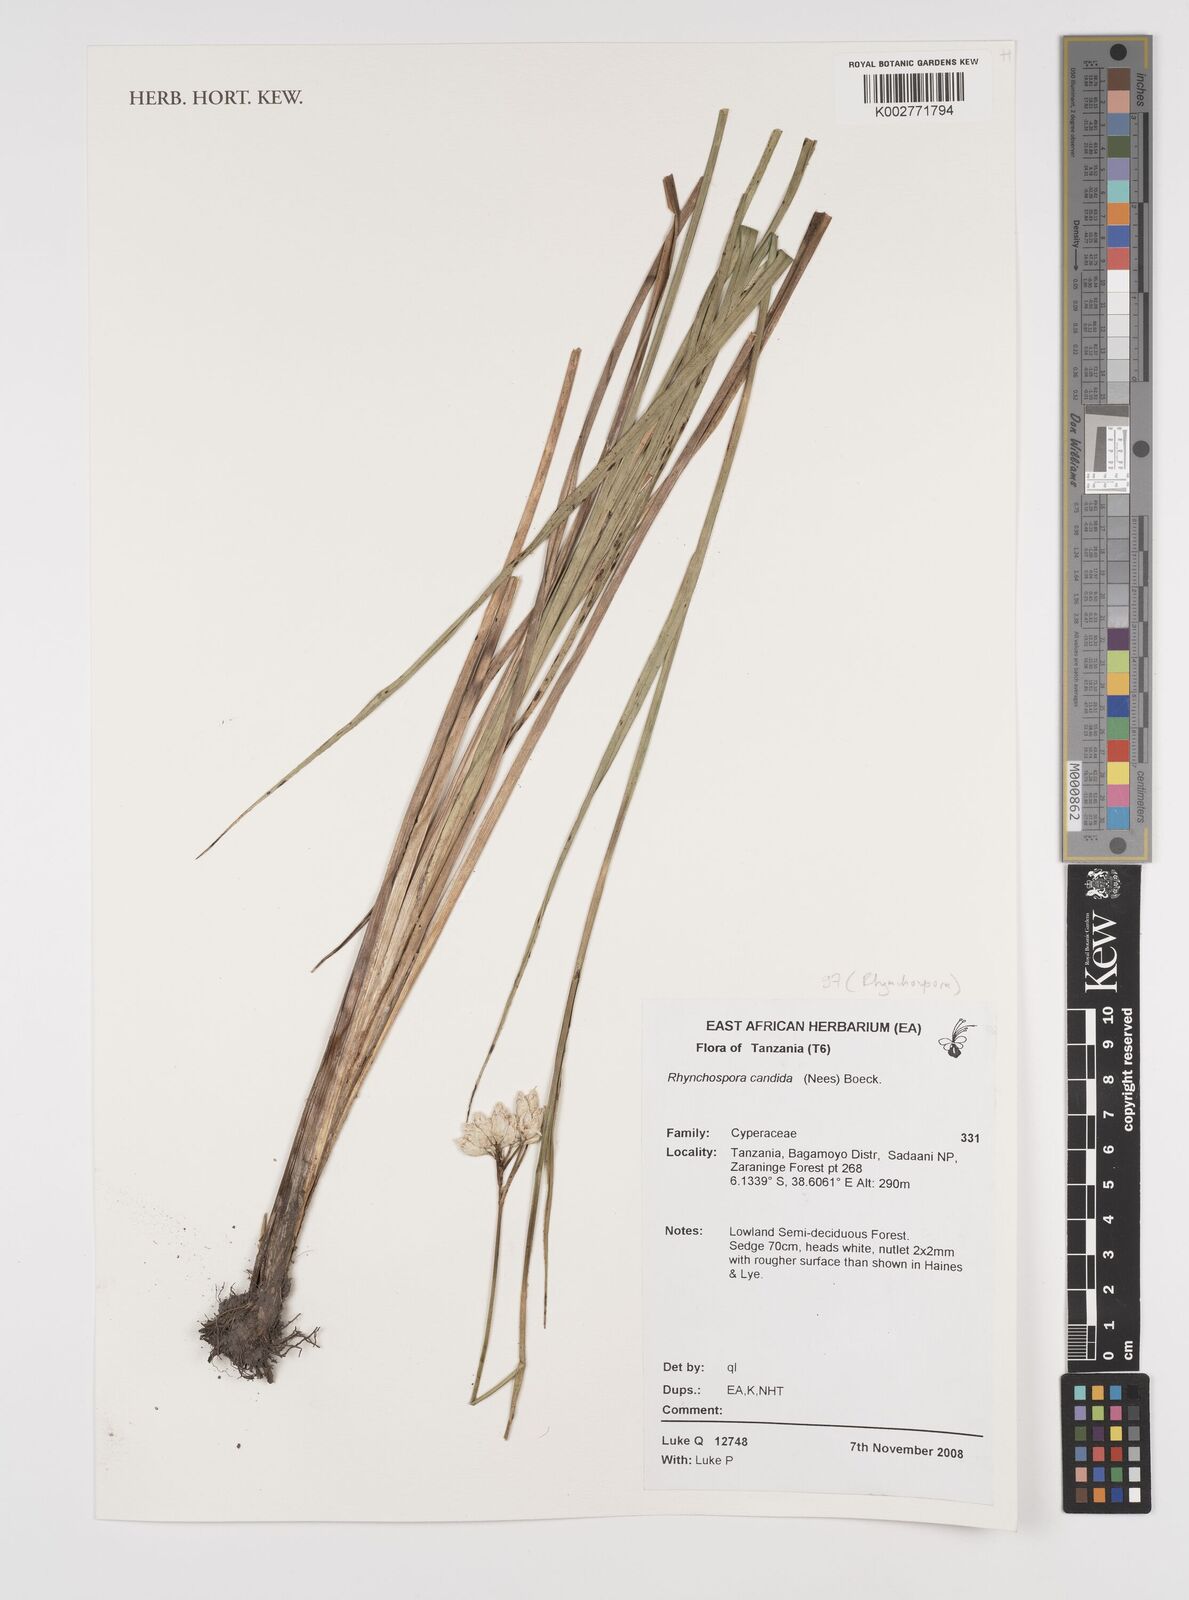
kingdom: Plantae
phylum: Tracheophyta
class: Liliopsida
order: Poales
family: Cyperaceae
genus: Rhynchospora
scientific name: Rhynchospora candida
